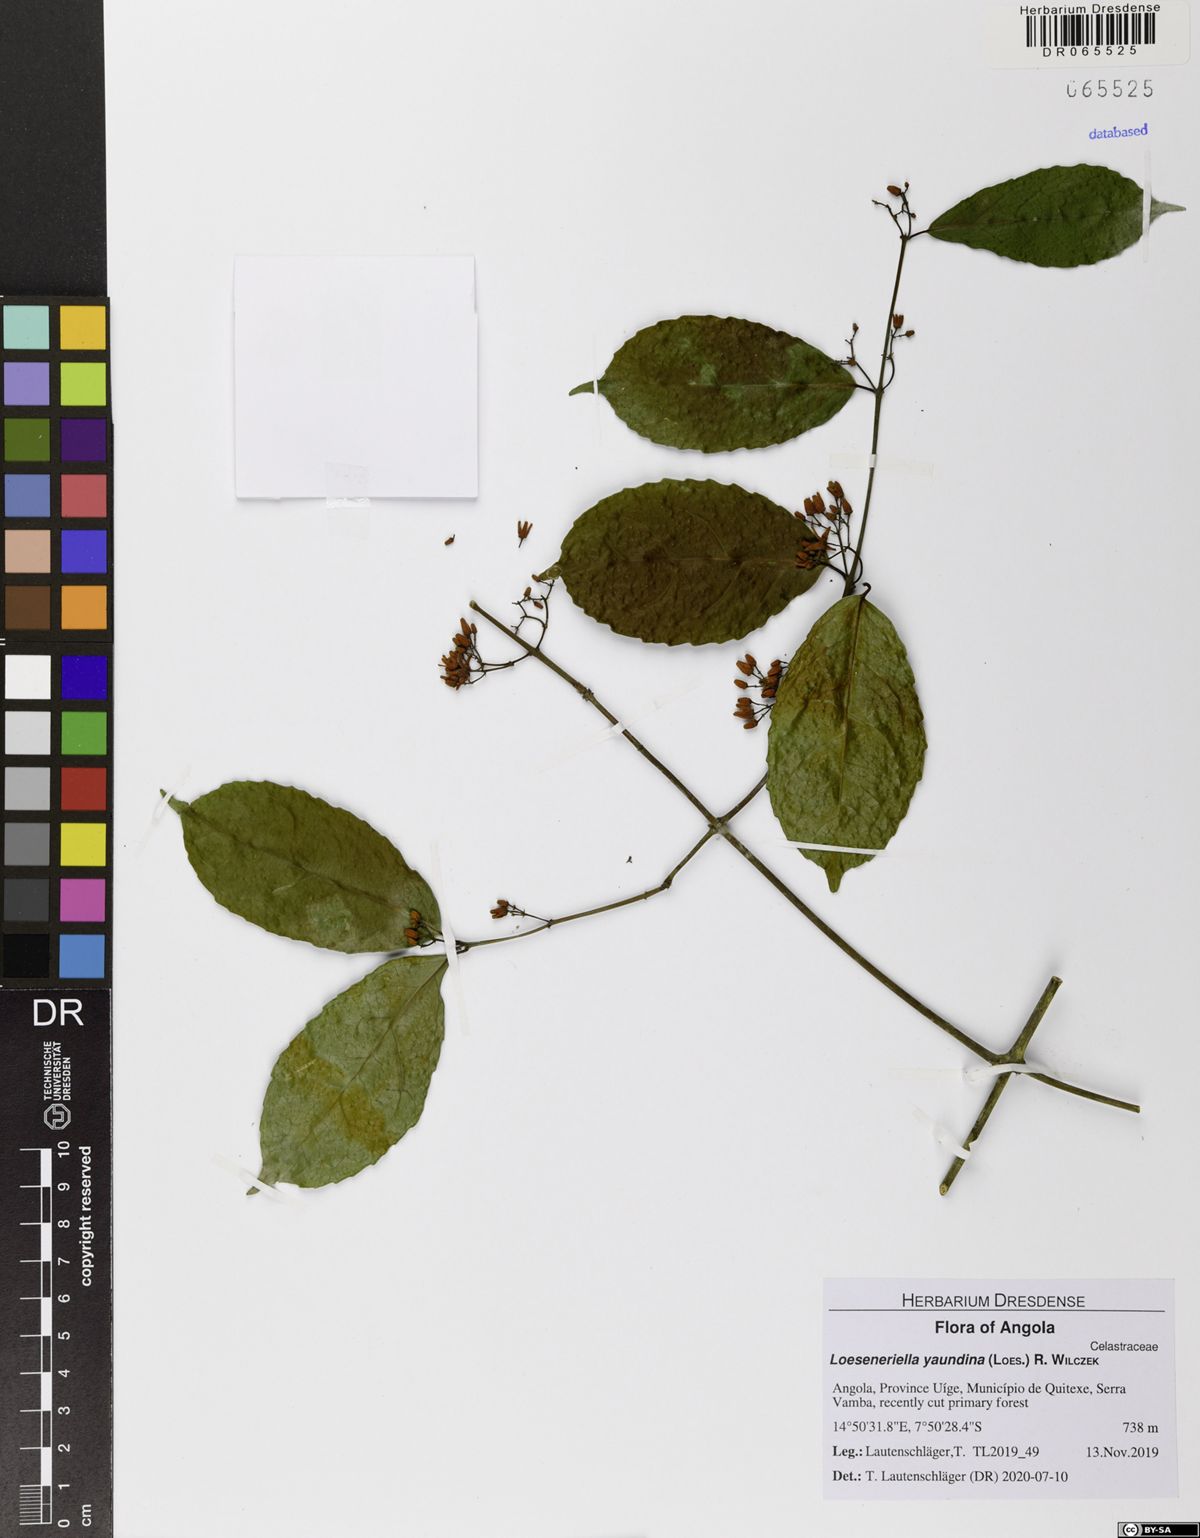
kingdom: Plantae
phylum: Tracheophyta
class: Magnoliopsida
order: Celastrales
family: Celastraceae
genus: Loeseneriella
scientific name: Loeseneriella yaundina
